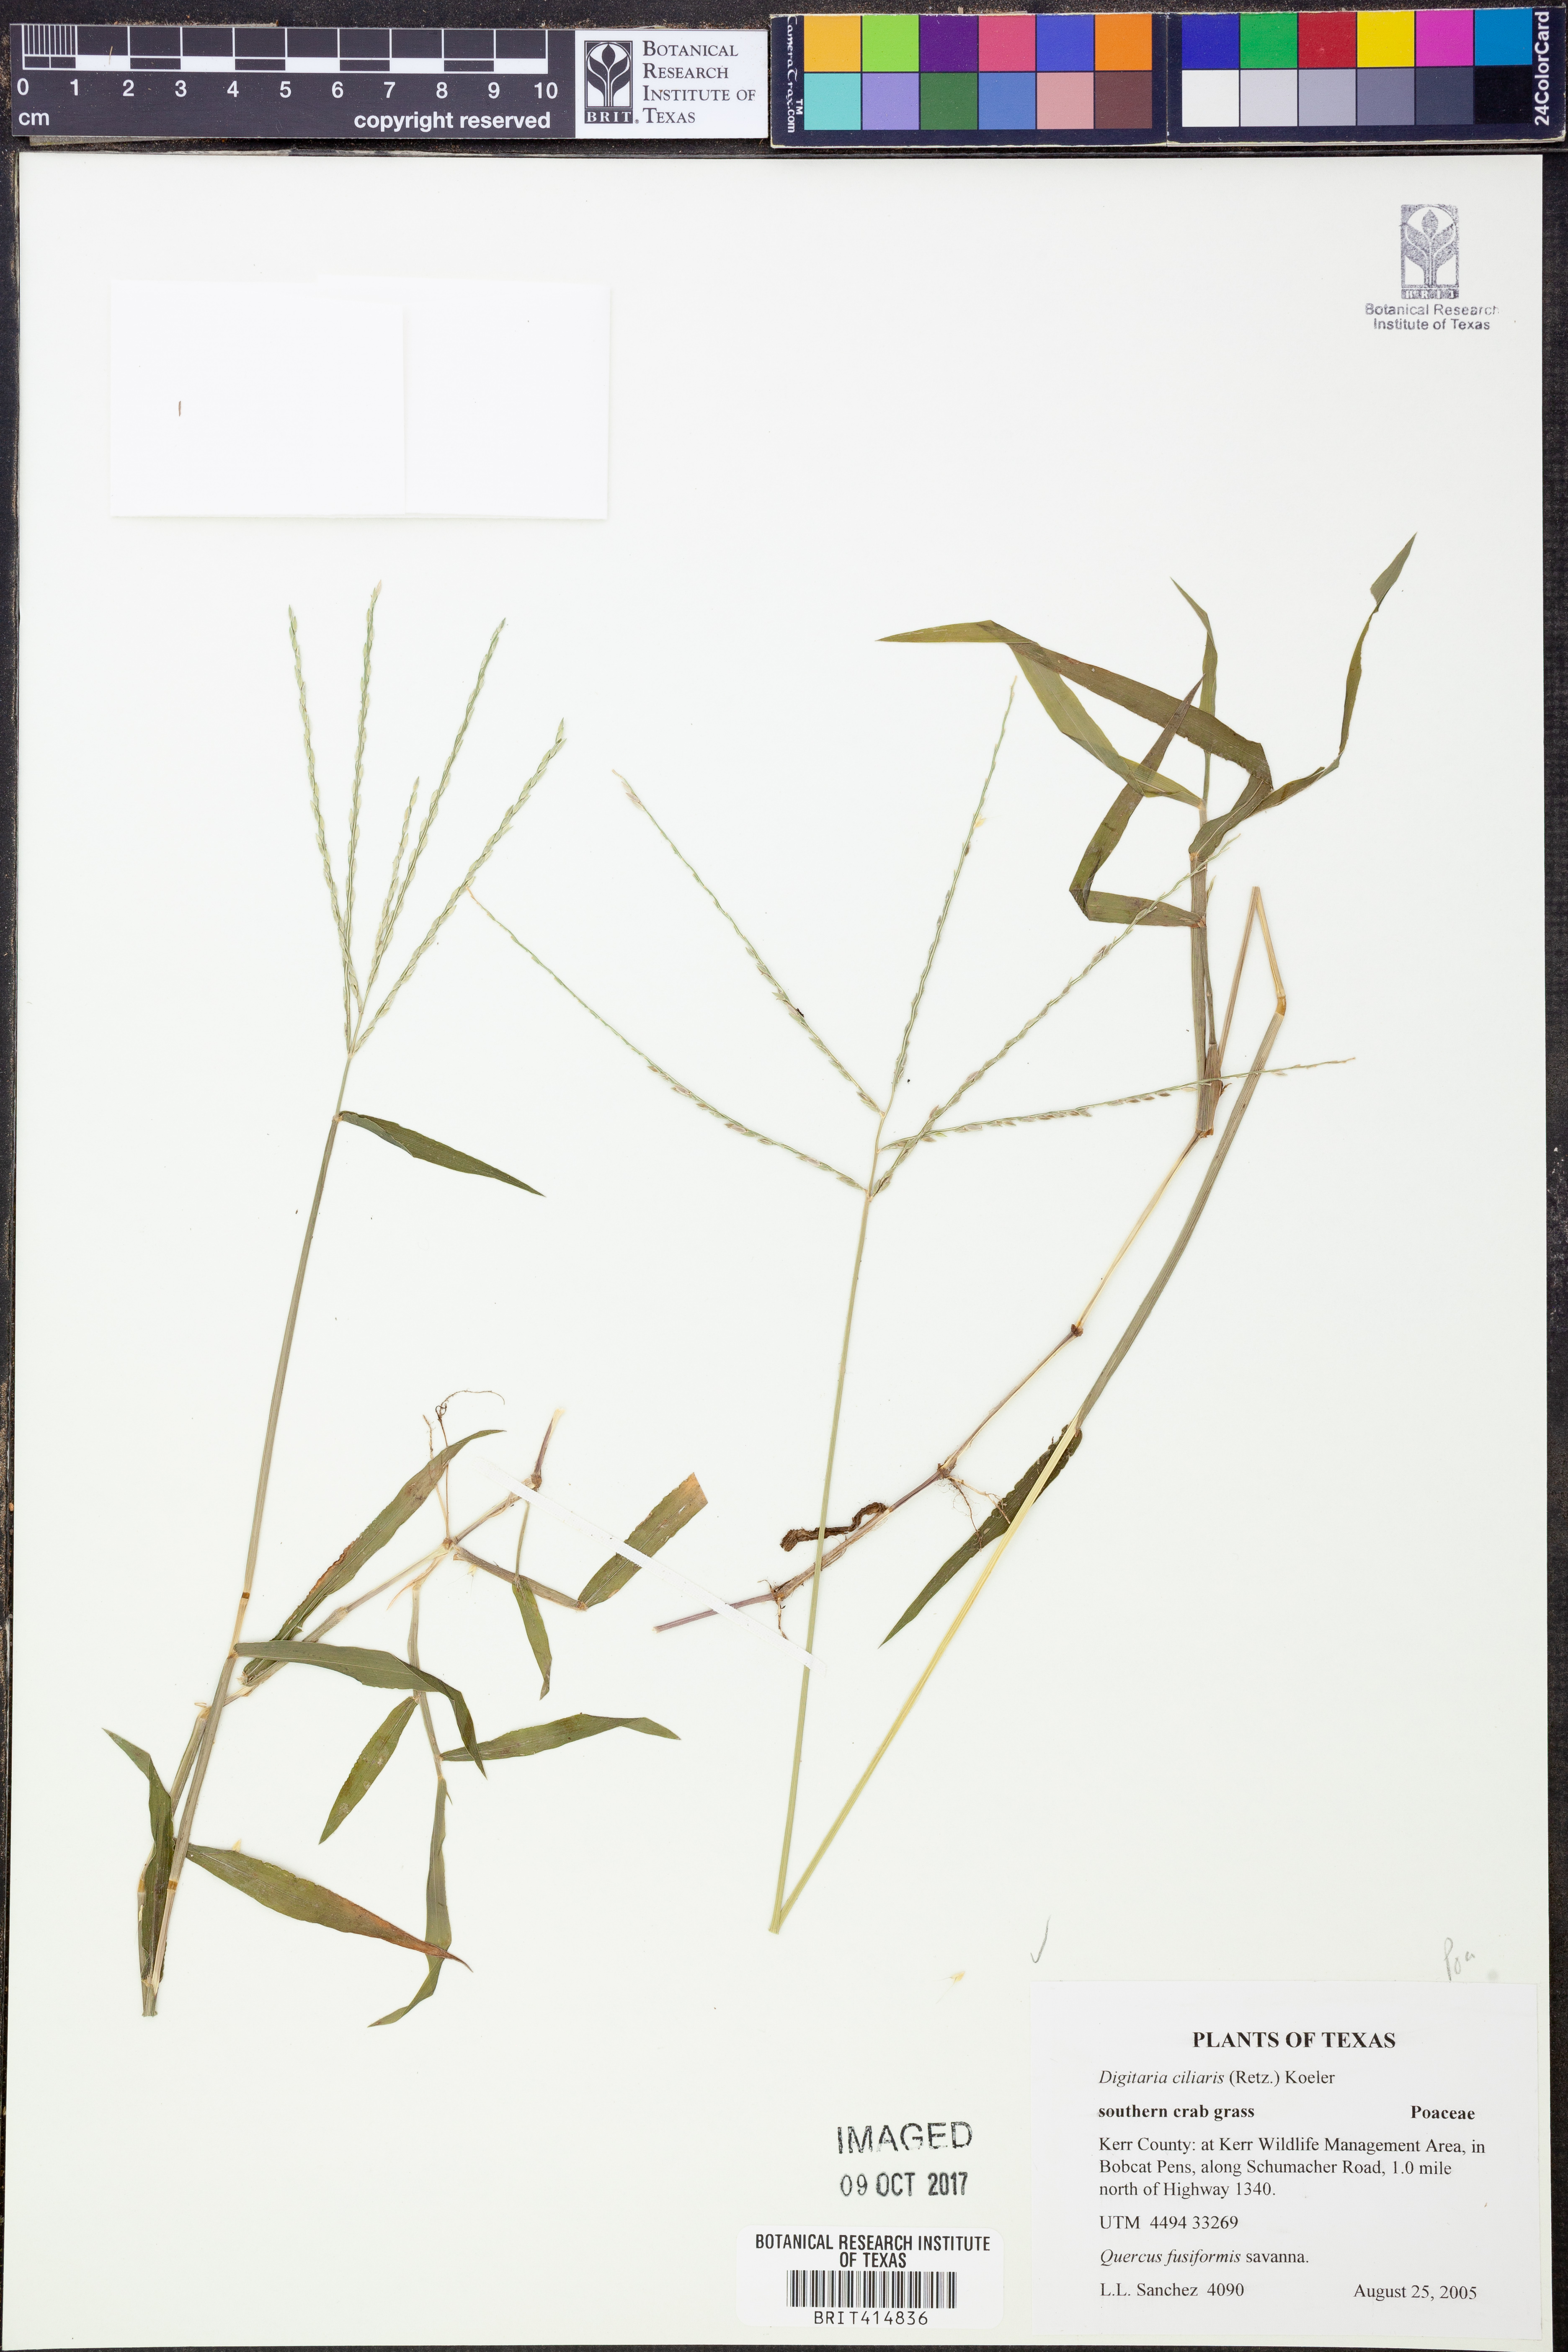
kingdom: Plantae
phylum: Tracheophyta
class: Liliopsida
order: Poales
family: Poaceae
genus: Digitaria
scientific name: Digitaria ciliaris
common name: Tropical finger-grass
